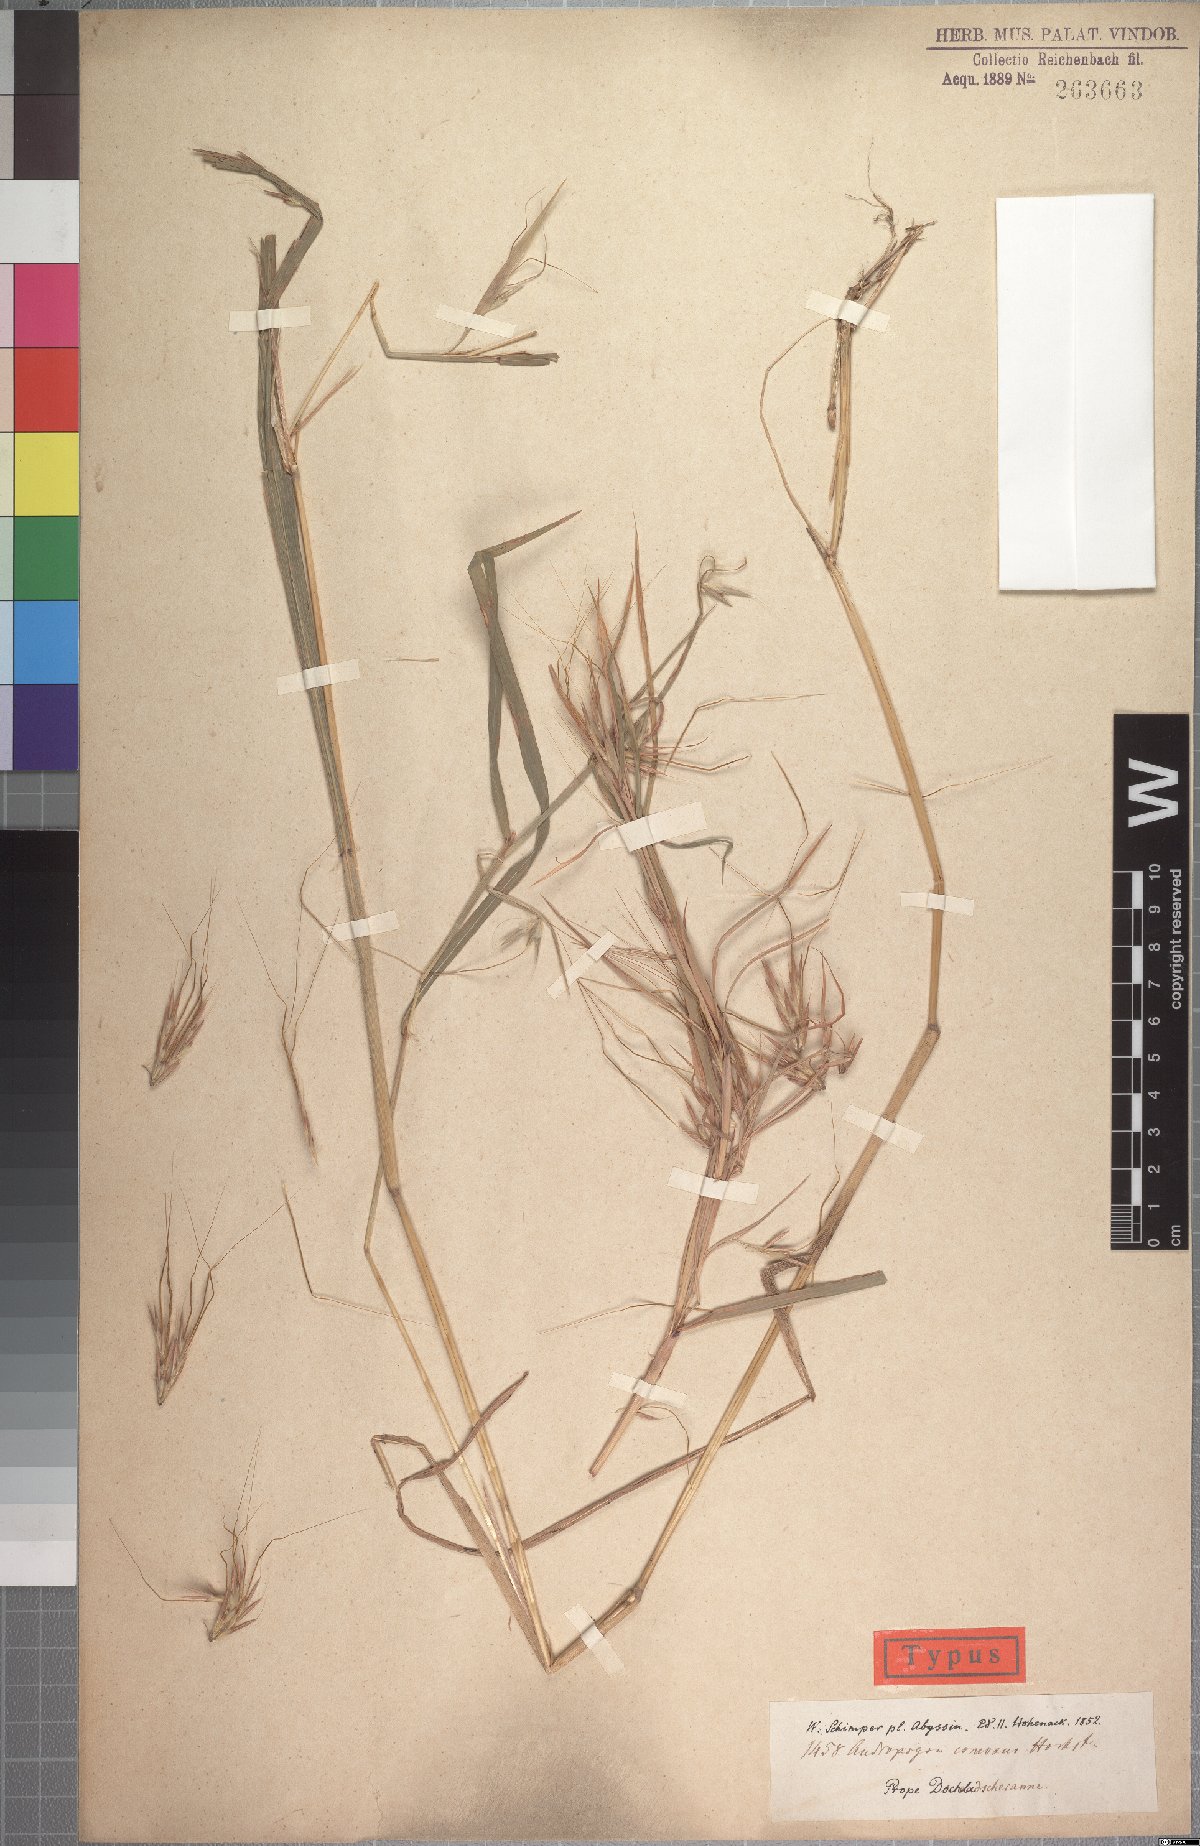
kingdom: Plantae
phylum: Tracheophyta
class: Liliopsida
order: Poales
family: Poaceae
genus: Hyparrhenia
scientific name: Hyparrhenia coleotricha
